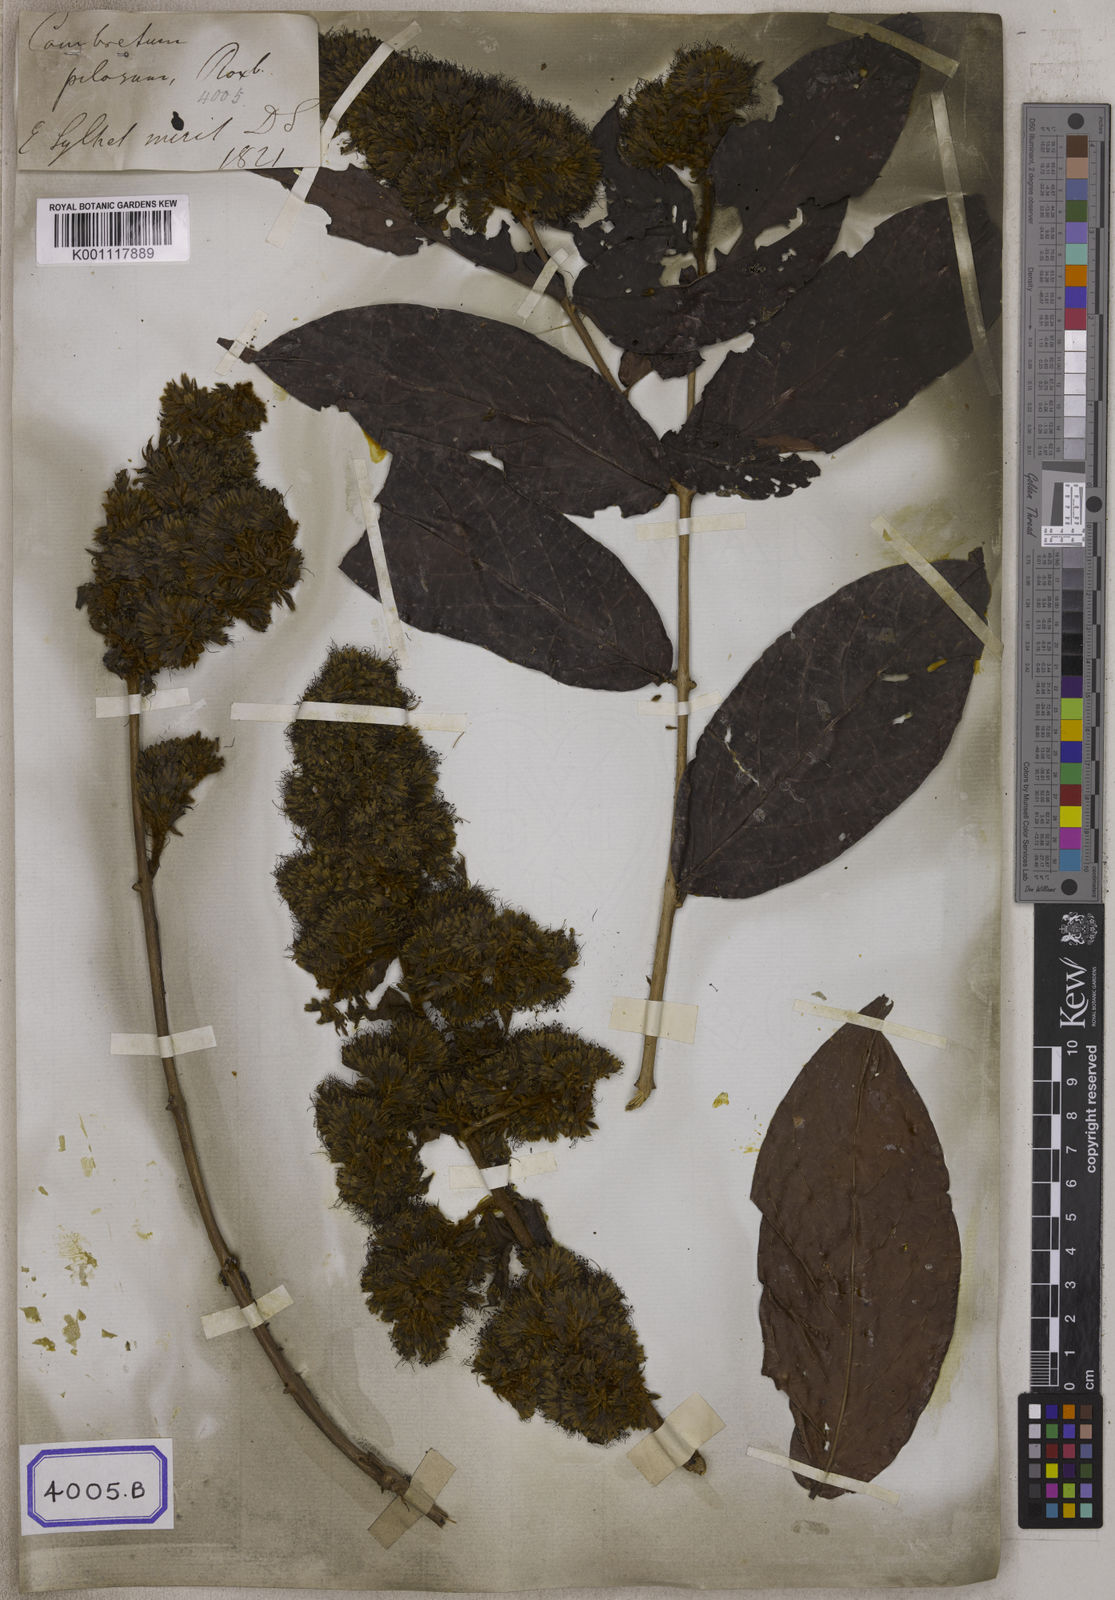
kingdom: Plantae
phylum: Tracheophyta
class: Magnoliopsida
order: Myrtales
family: Combretaceae
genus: Combretum
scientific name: Combretum
